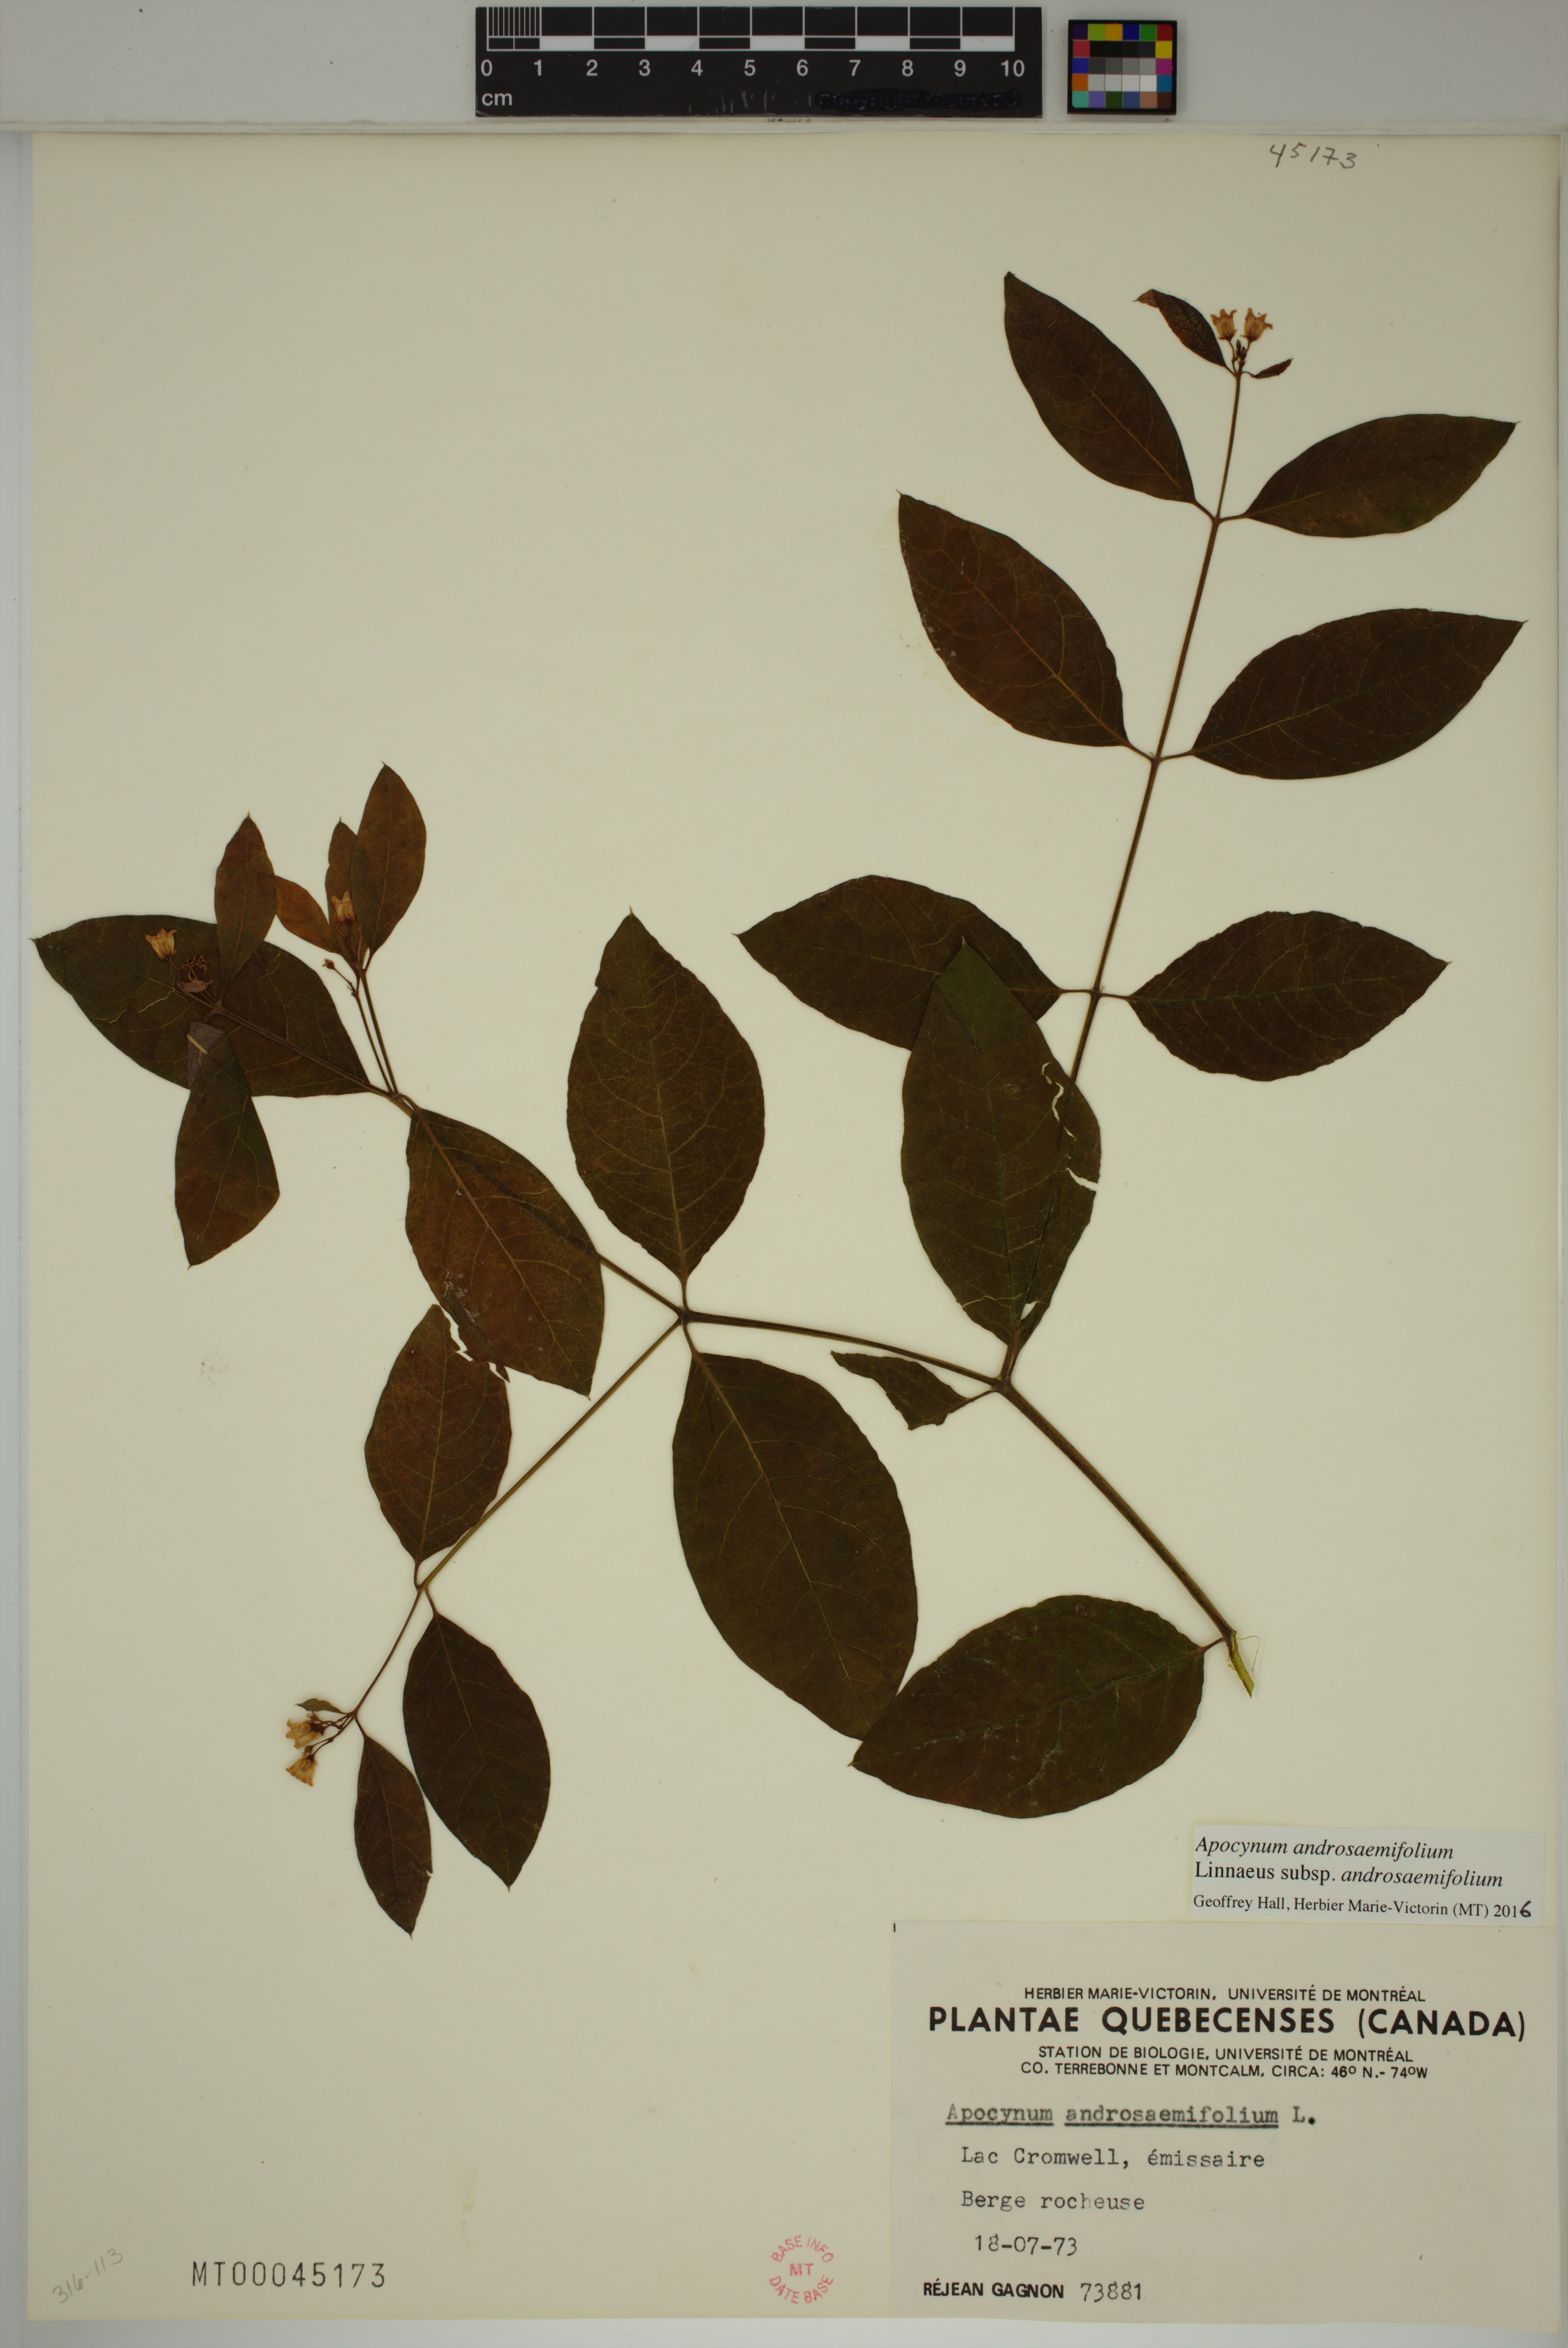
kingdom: Plantae
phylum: Tracheophyta
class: Magnoliopsida
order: Gentianales
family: Apocynaceae
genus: Apocynum
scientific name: Apocynum androsaemifolium
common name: Spreading dogbane
